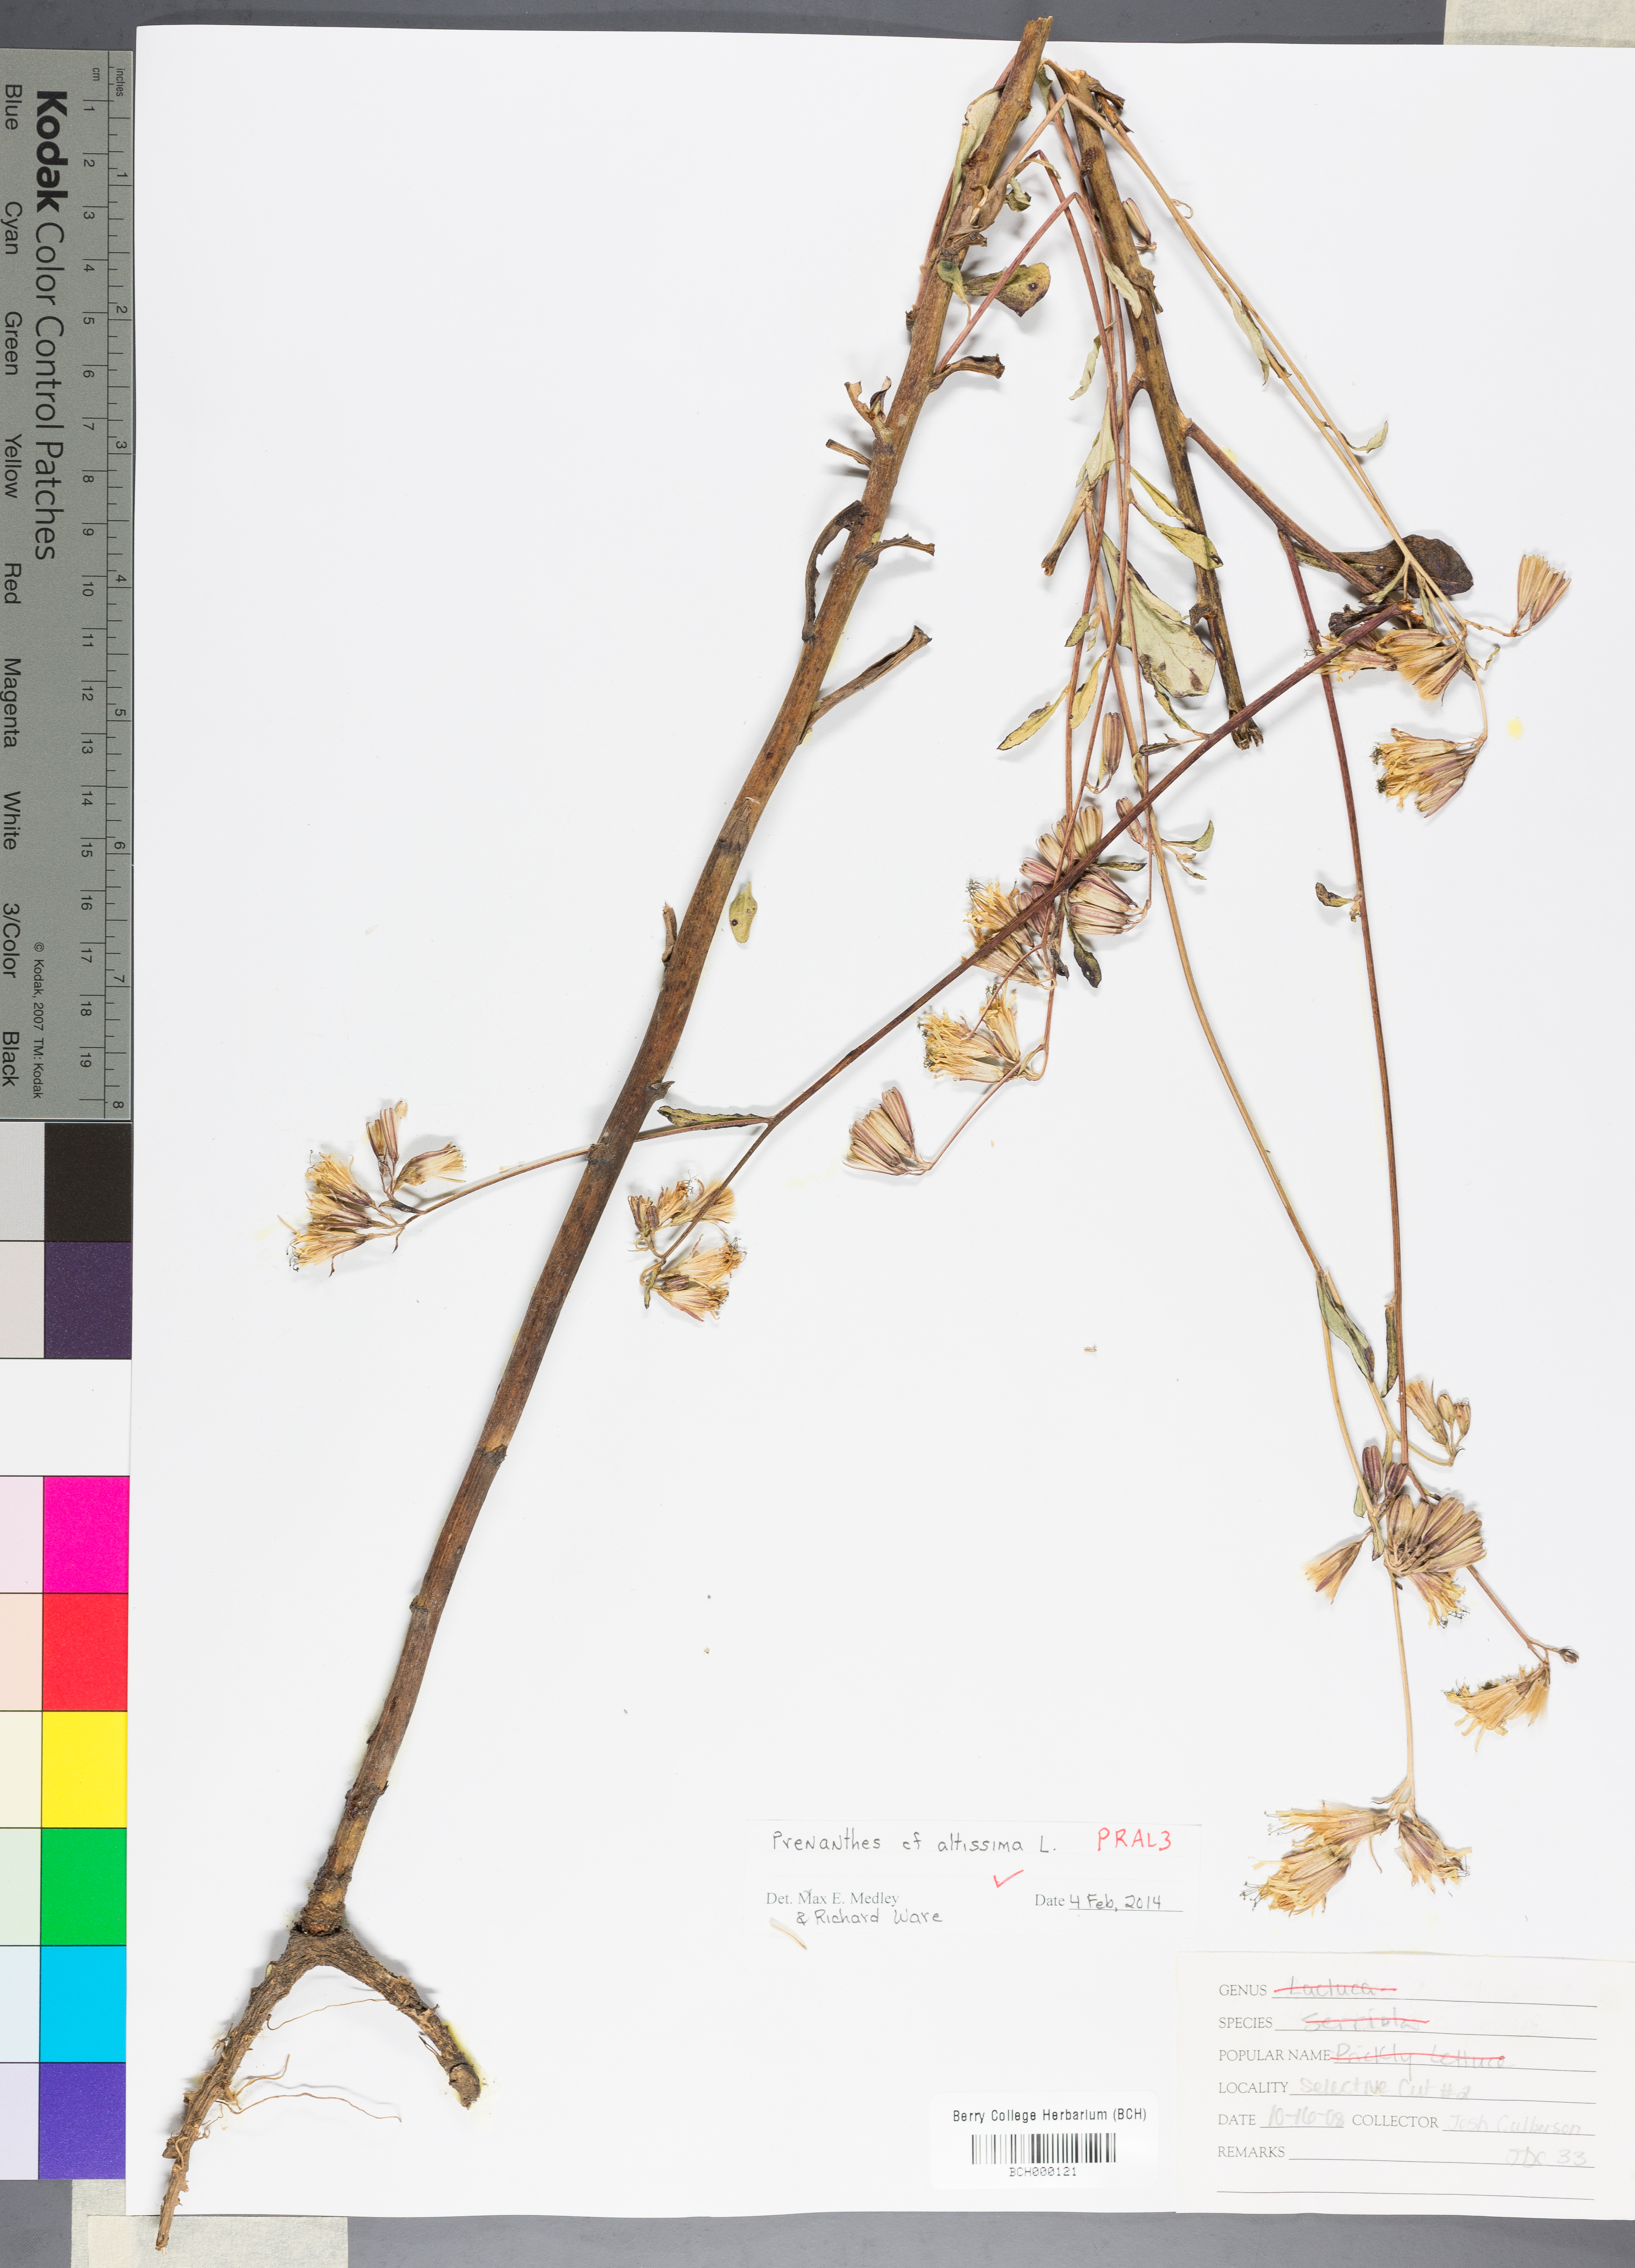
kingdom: Plantae
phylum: Tracheophyta
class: Magnoliopsida
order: Asterales
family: Asteraceae
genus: Lactuca
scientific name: Lactuca quercina
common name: Wild lettuce
